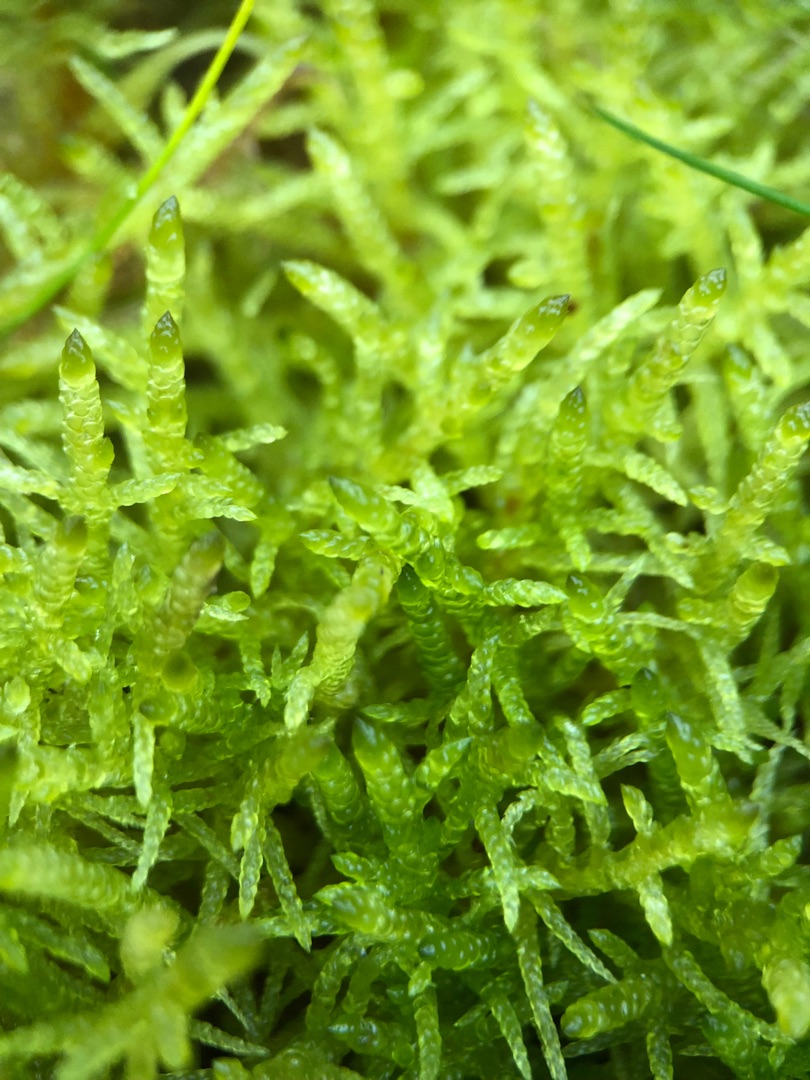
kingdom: Plantae
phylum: Bryophyta
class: Bryopsida
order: Hypnales
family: Brachytheciaceae
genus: Pseudoscleropodium
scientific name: Pseudoscleropodium purum
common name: Hulbladet fedtmos
